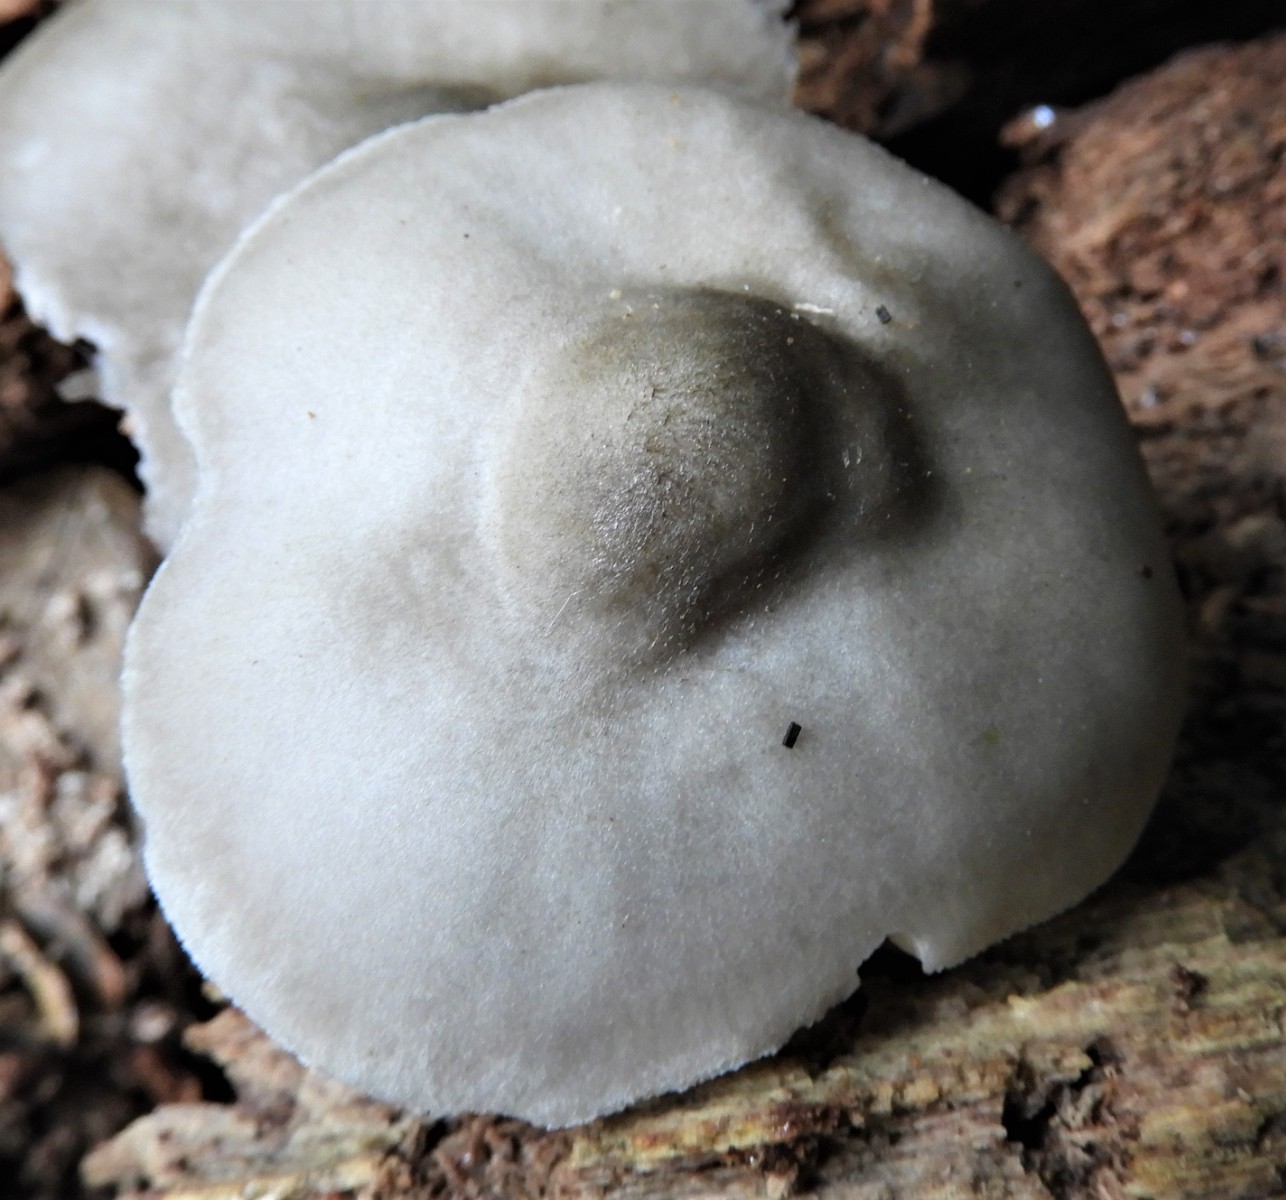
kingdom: Fungi
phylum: Basidiomycota
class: Agaricomycetes
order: Agaricales
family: Pluteaceae
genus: Pluteus
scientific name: Pluteus salicinus
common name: stiv skærmhat
